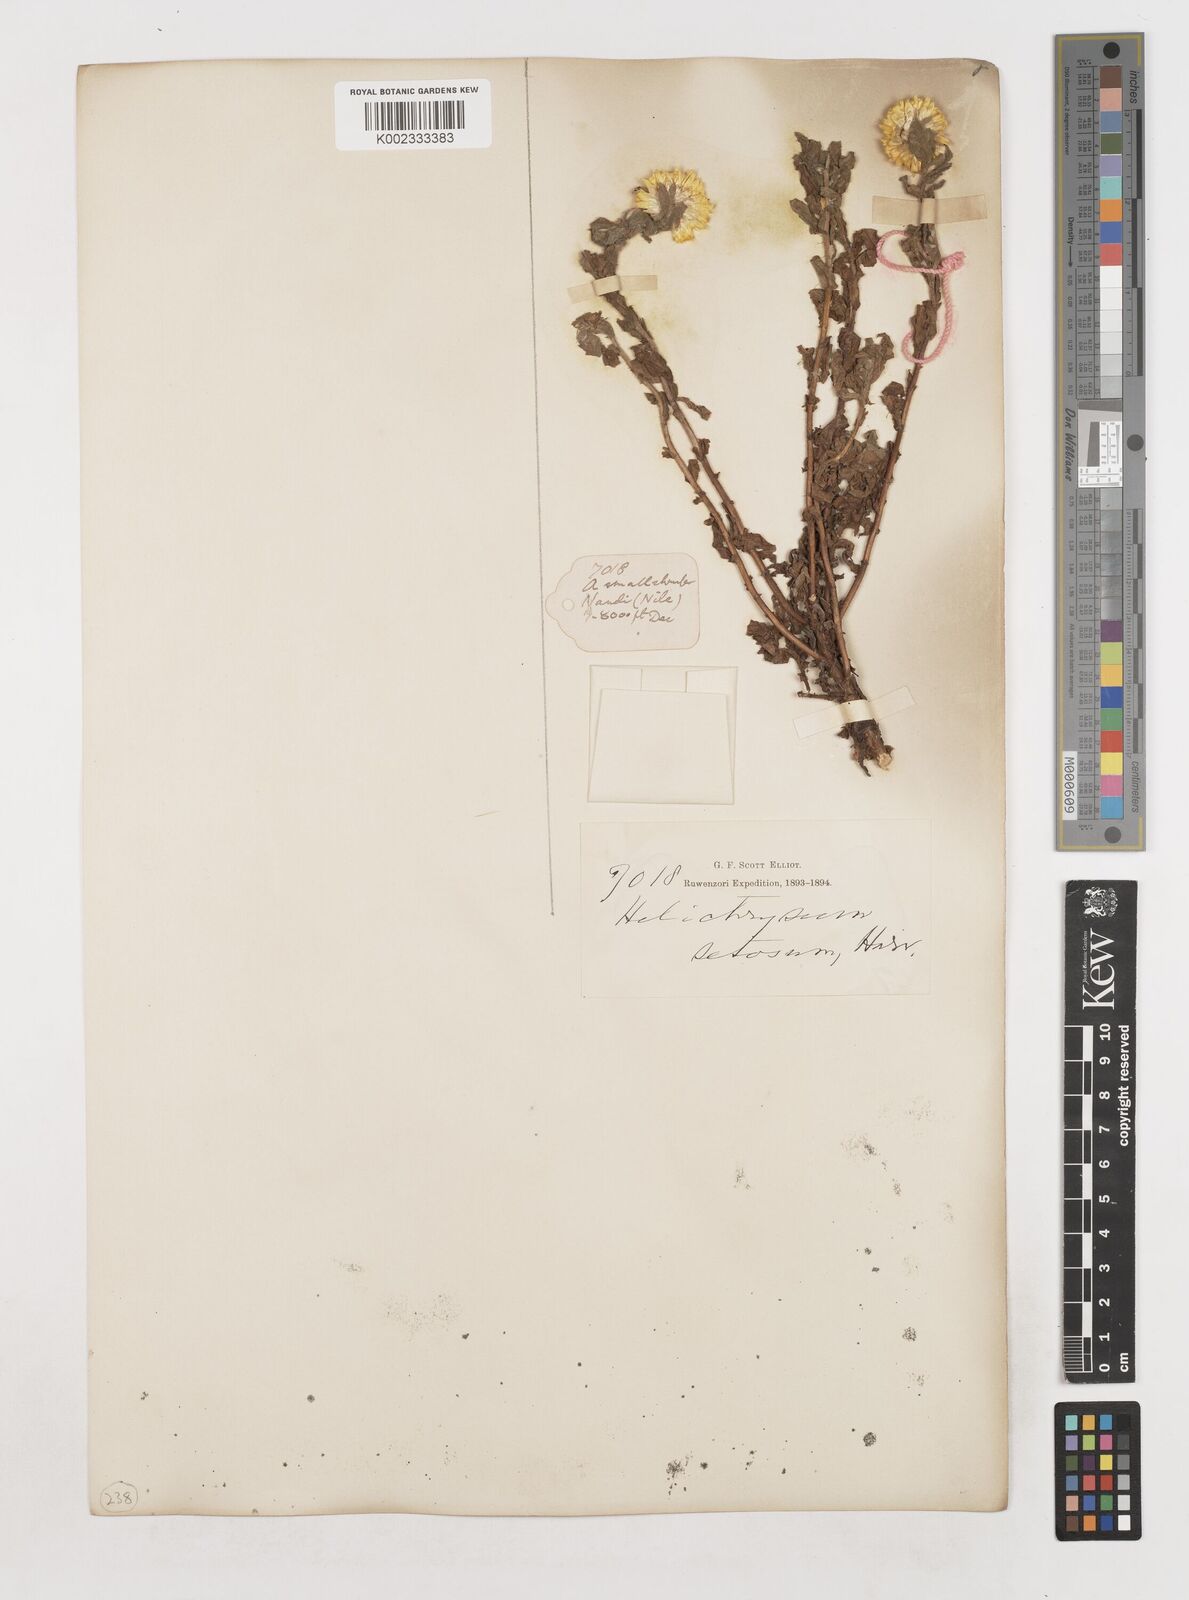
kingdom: Plantae
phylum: Tracheophyta
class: Magnoliopsida
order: Asterales
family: Asteraceae
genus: Helichrysum
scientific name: Helichrysum setosum
